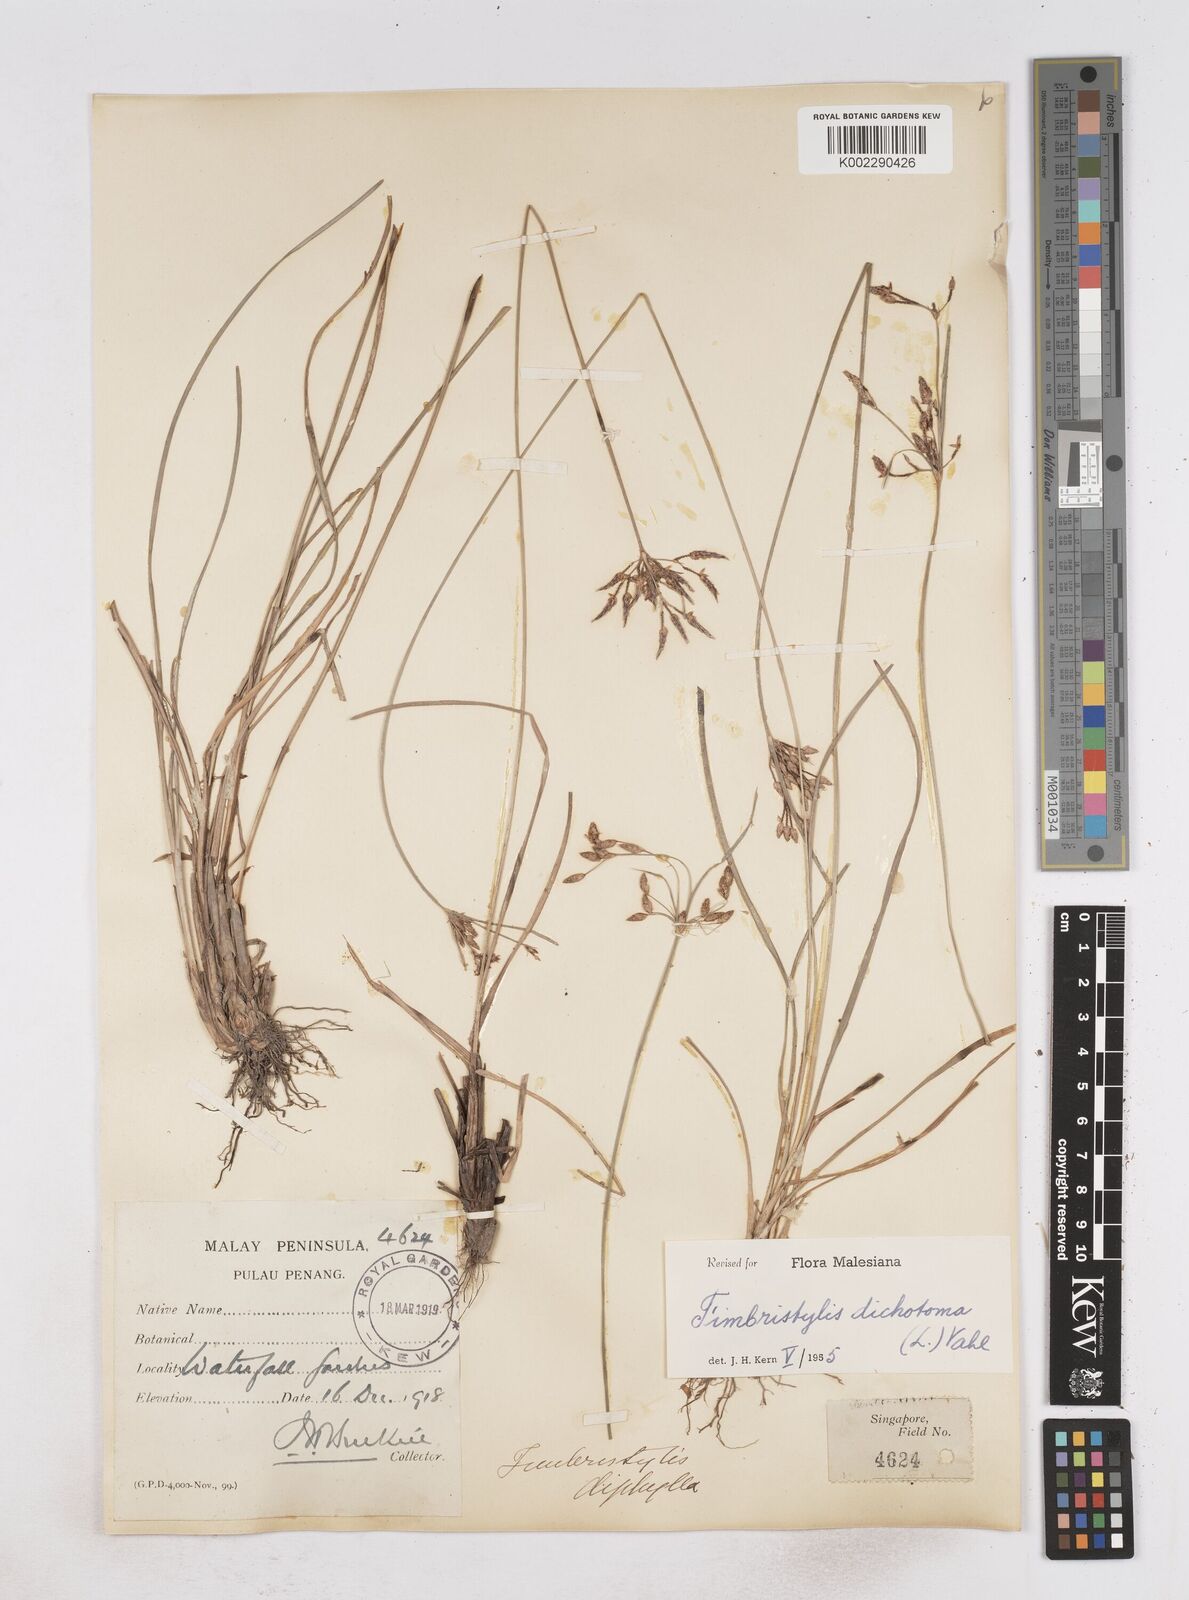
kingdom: Plantae
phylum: Tracheophyta
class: Liliopsida
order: Poales
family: Cyperaceae
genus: Fimbristylis
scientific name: Fimbristylis dichotoma
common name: Forked fimbry
